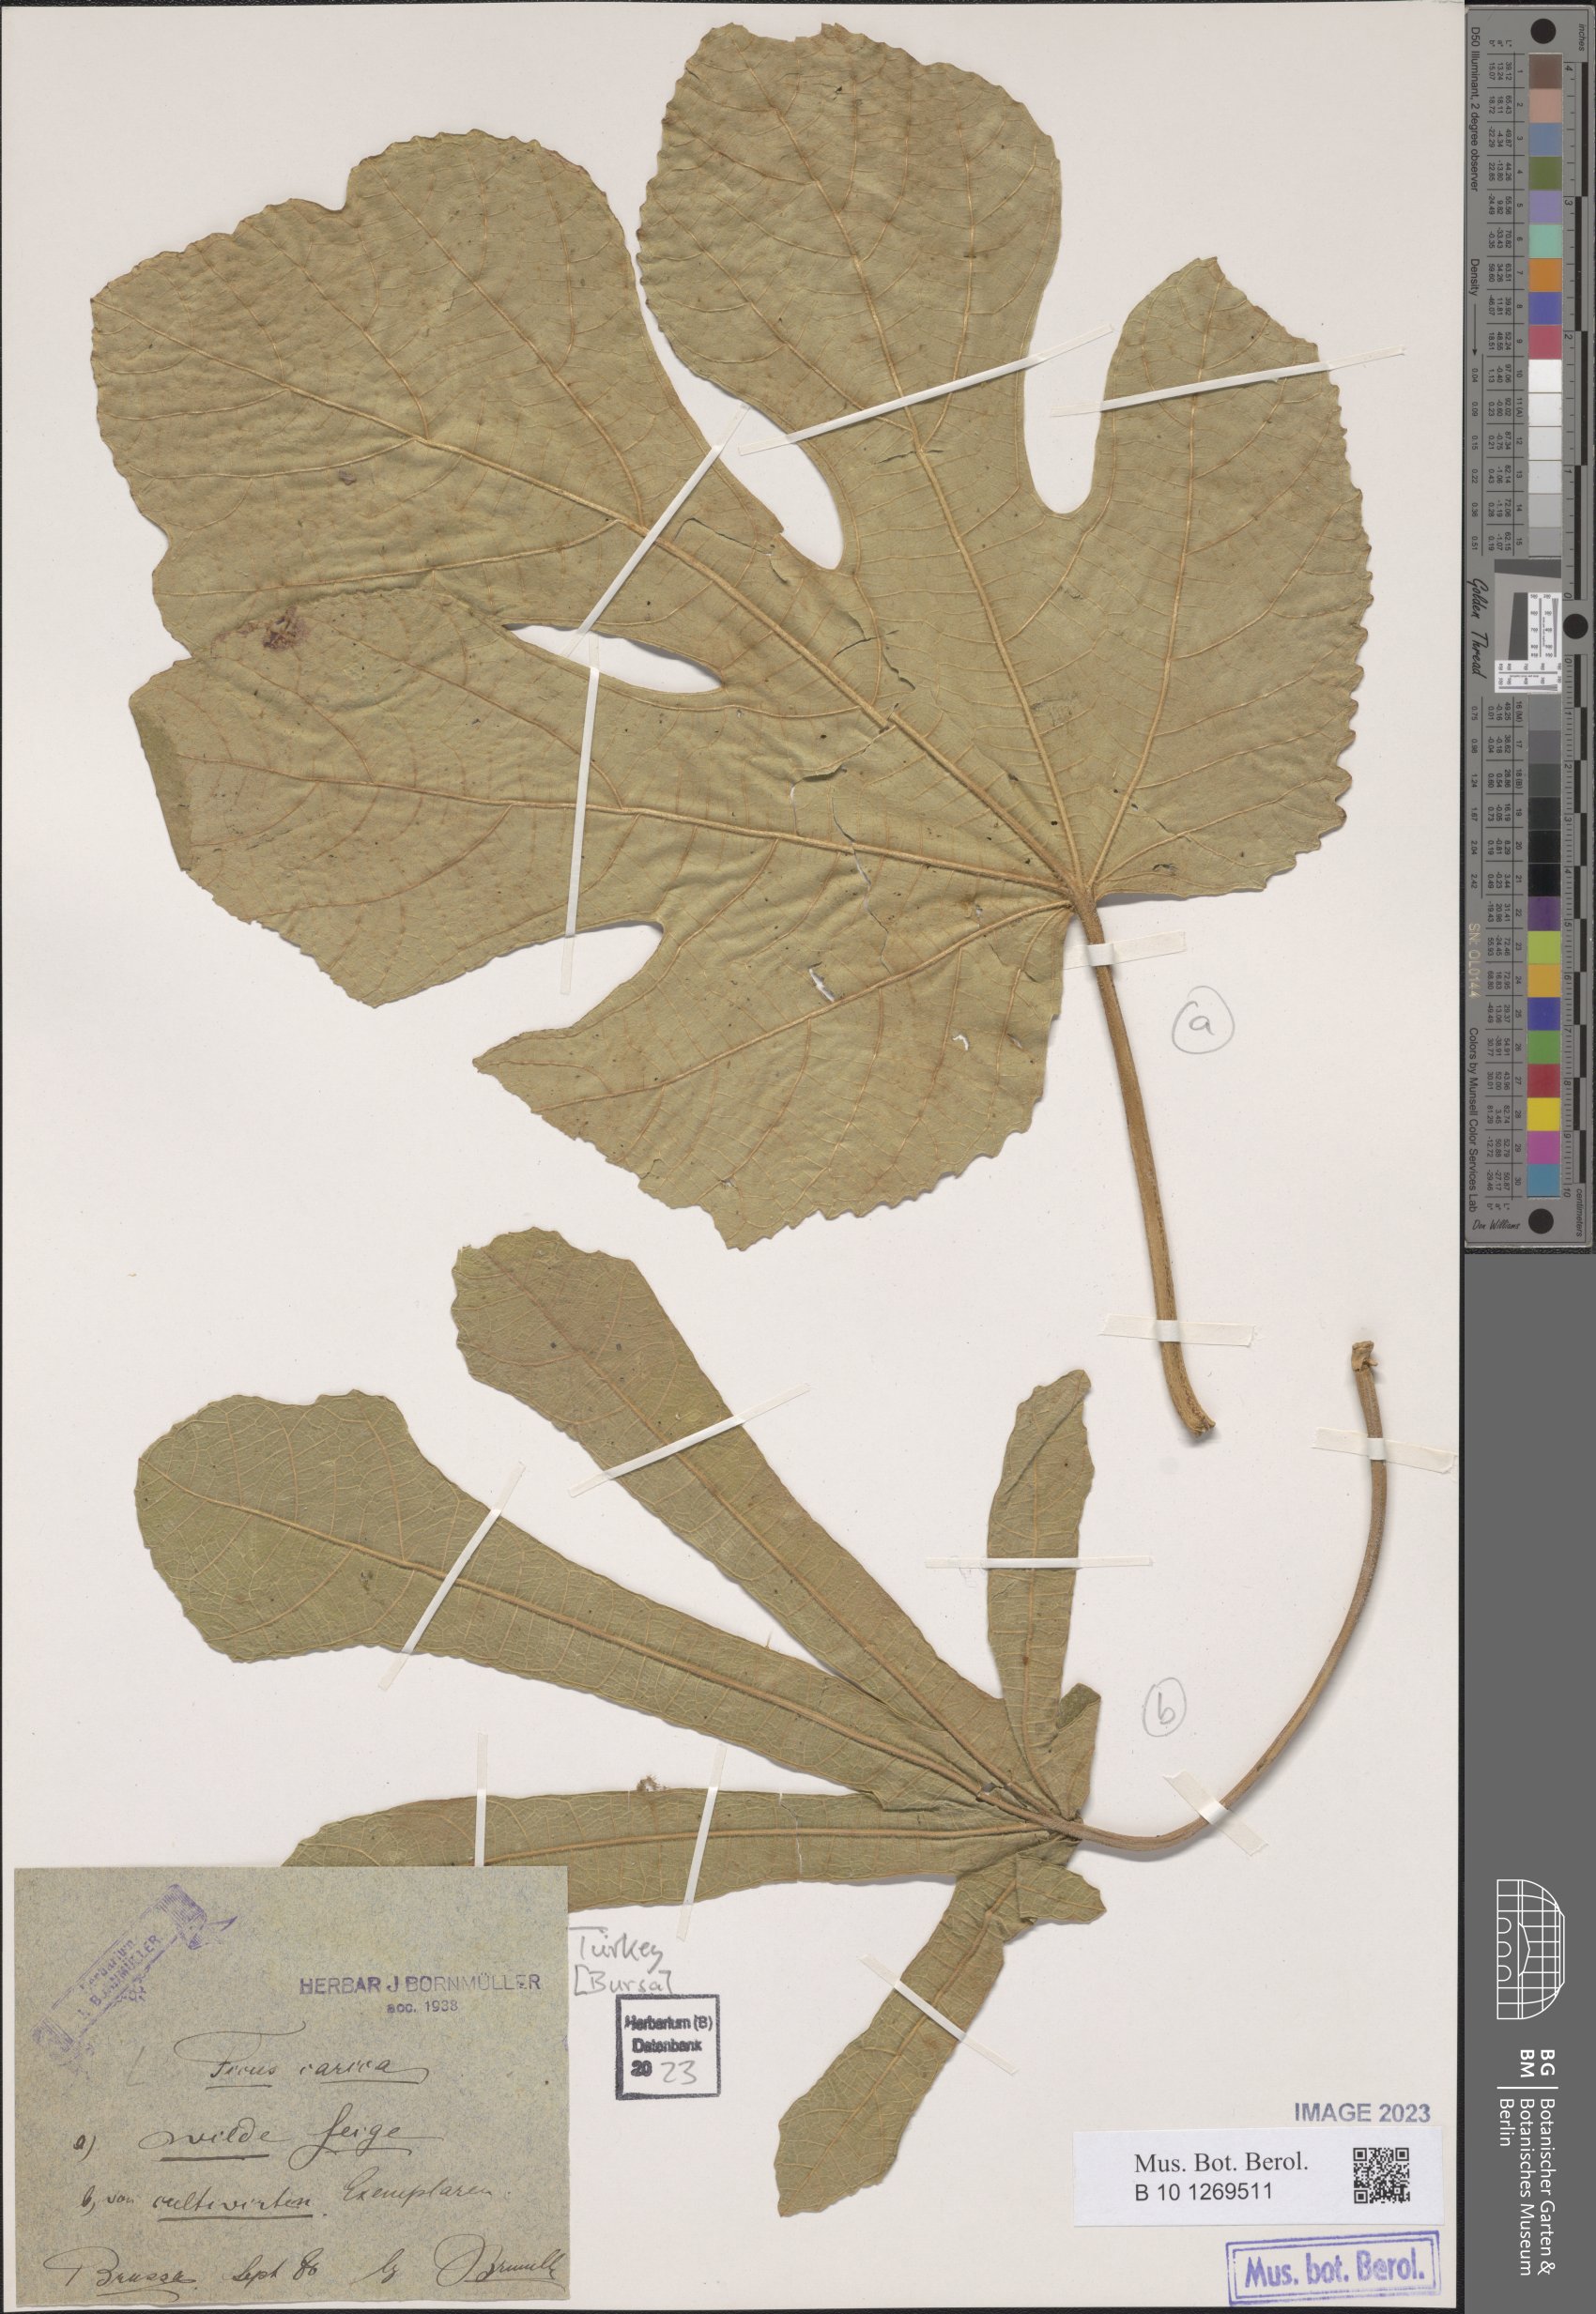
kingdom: Plantae
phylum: Tracheophyta
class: Magnoliopsida
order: Rosales
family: Moraceae
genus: Ficus
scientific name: Ficus carica
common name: Fig
